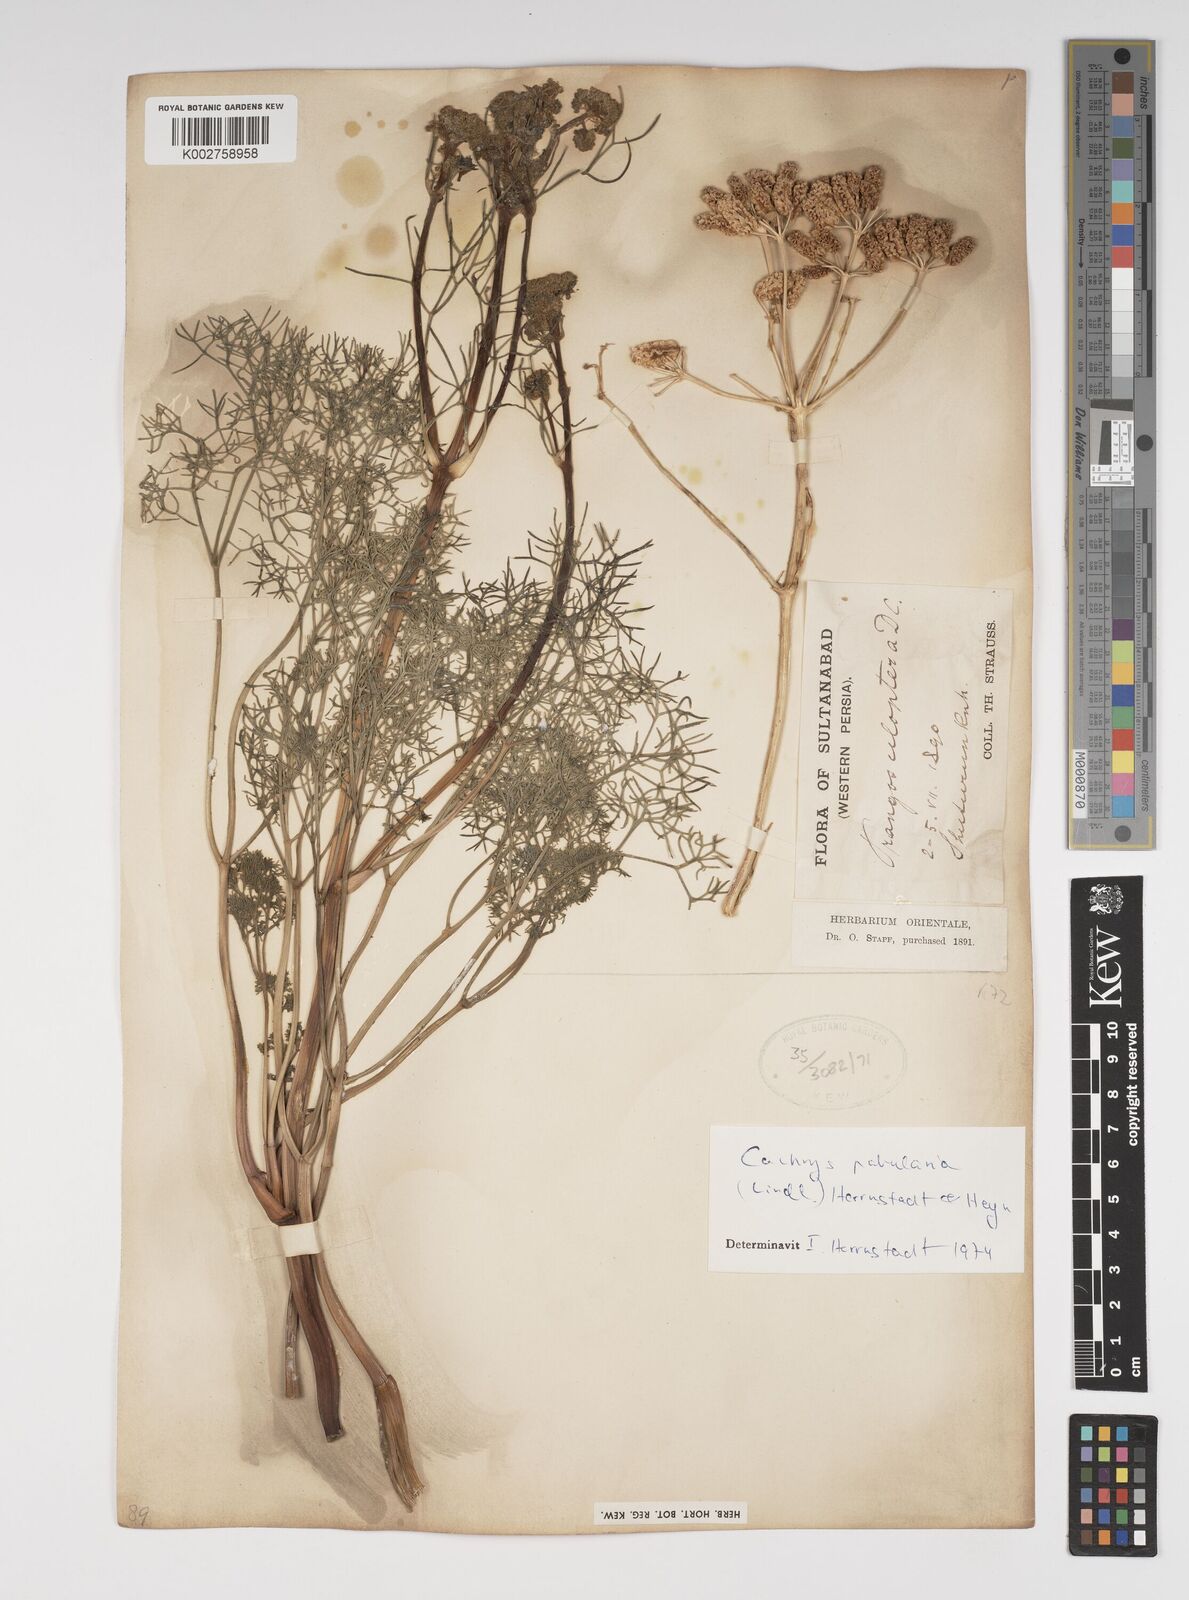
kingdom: Plantae
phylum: Tracheophyta
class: Magnoliopsida
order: Apiales
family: Apiaceae
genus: Prangos
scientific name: Prangos pabularia
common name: Yugan
